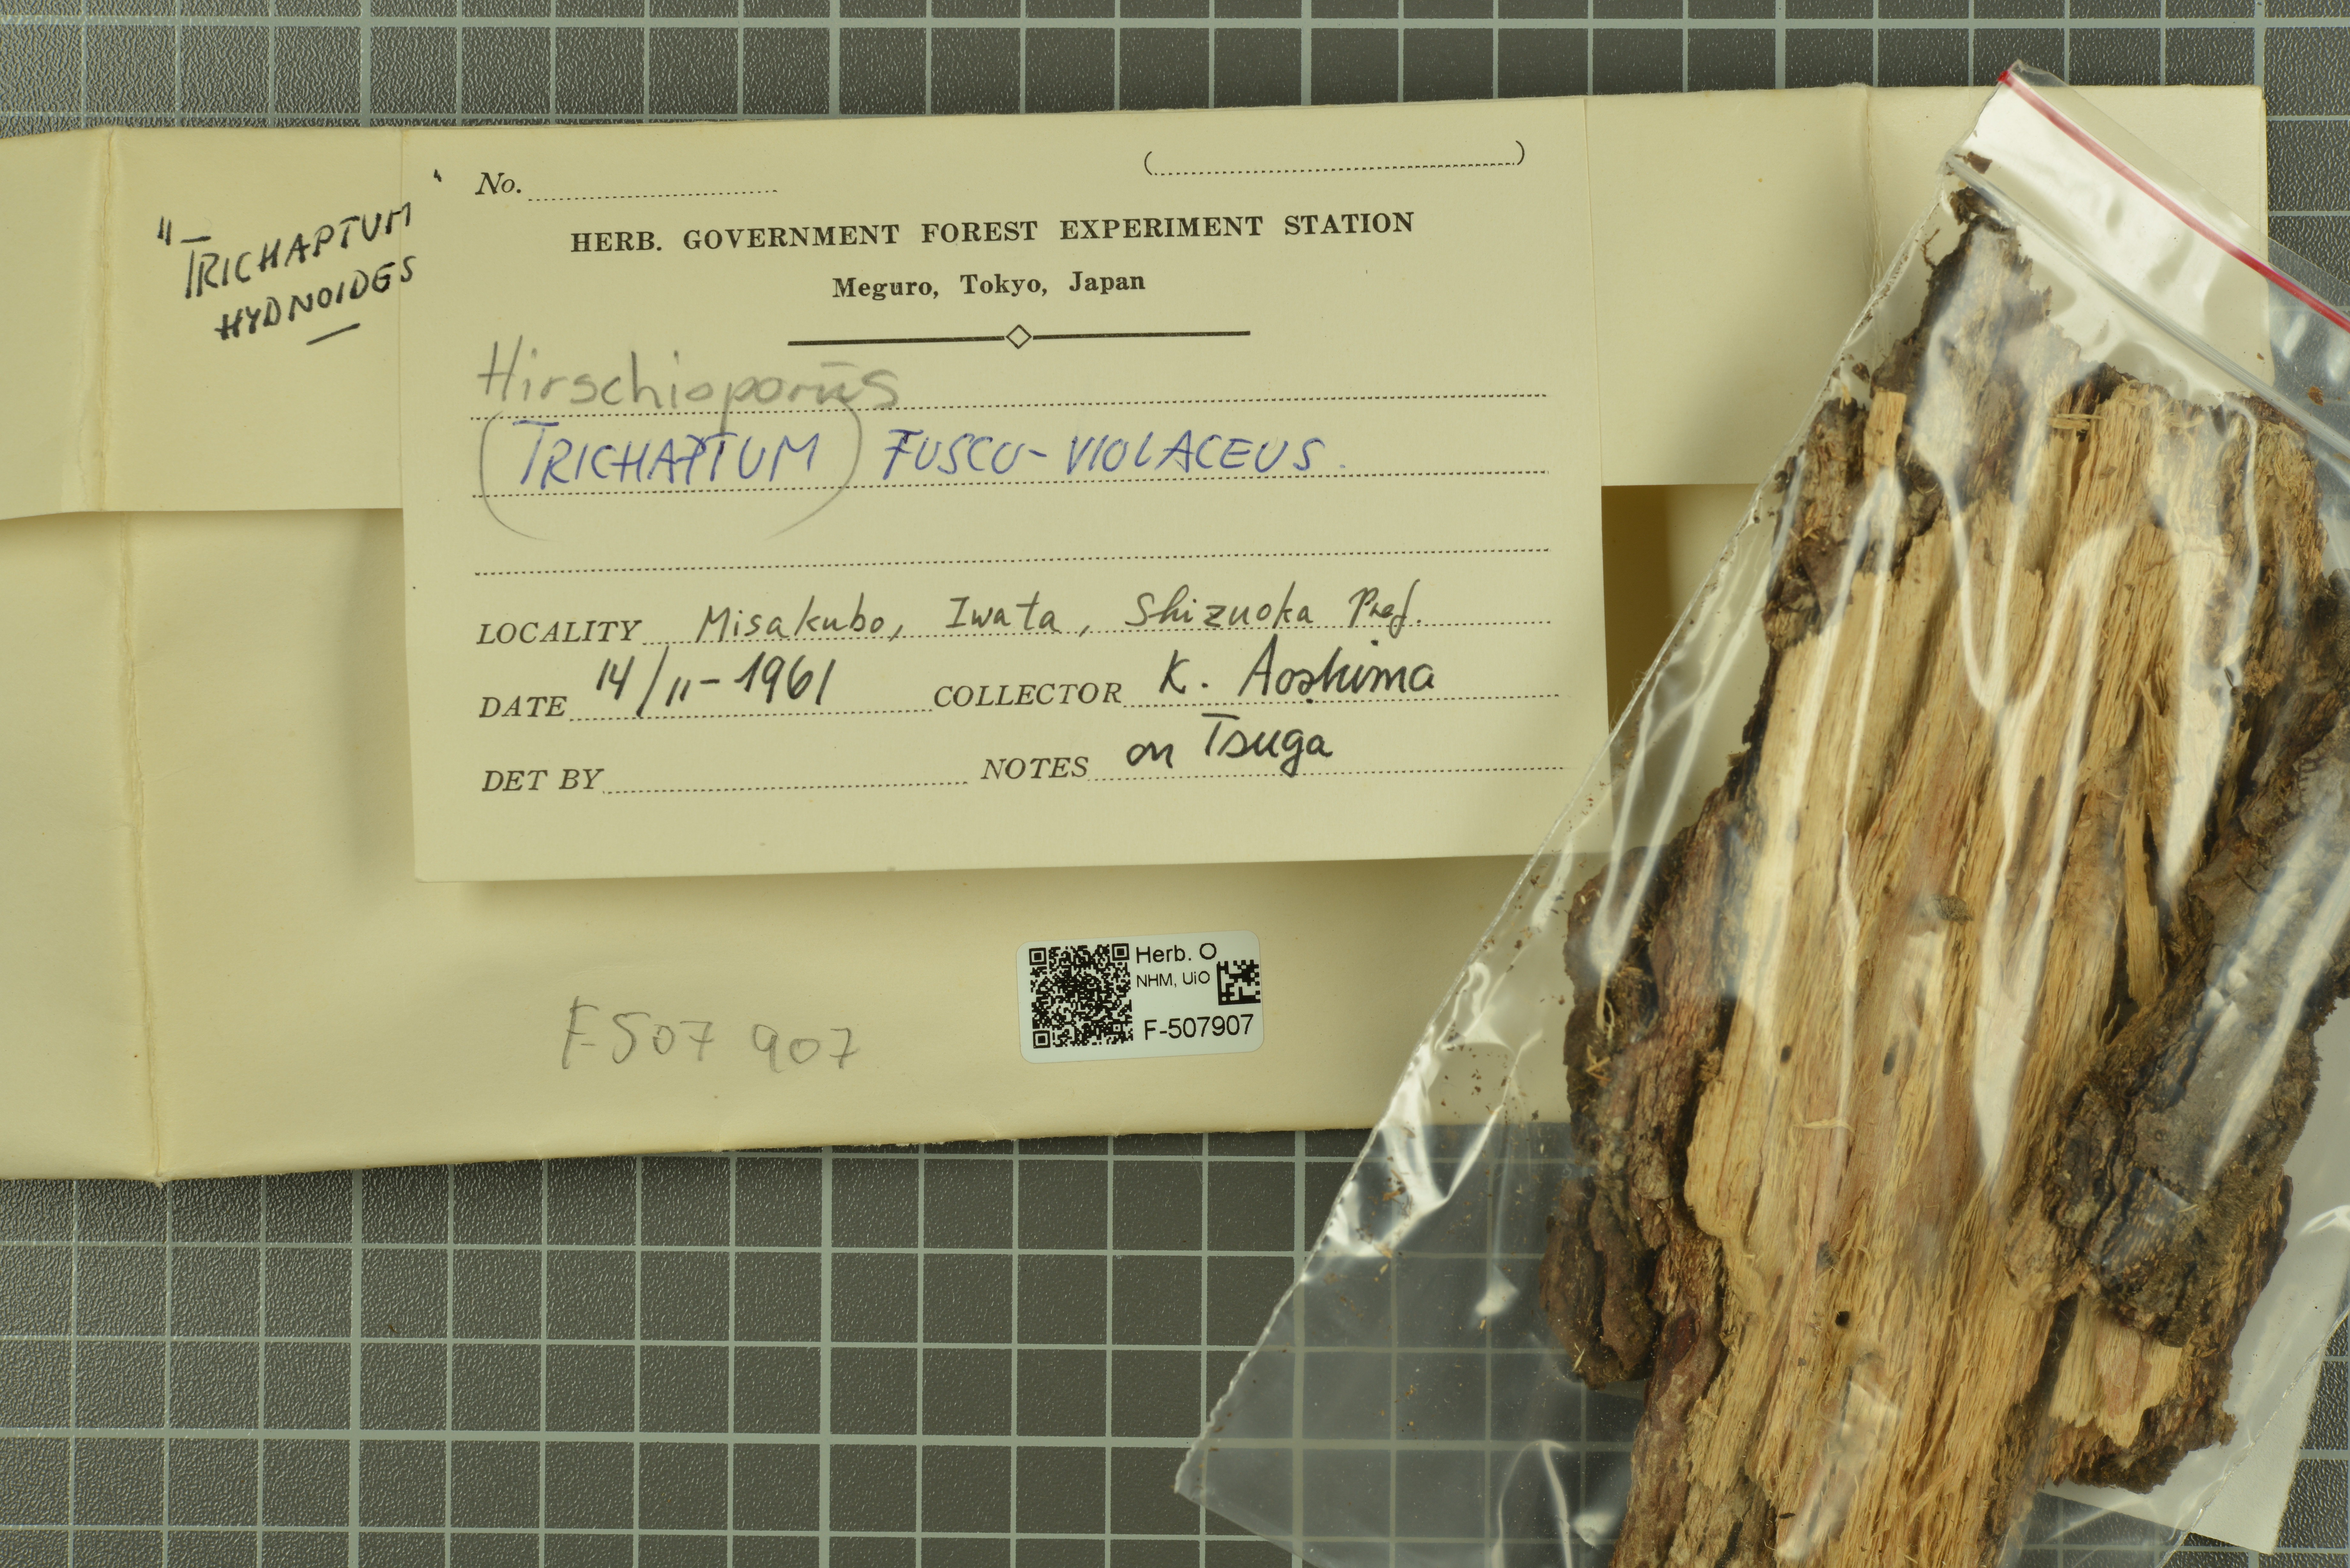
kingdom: Fungi
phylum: Basidiomycota
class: Agaricomycetes
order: Hymenochaetales
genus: Trichaptum
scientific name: Trichaptum fuscoviolaceum
